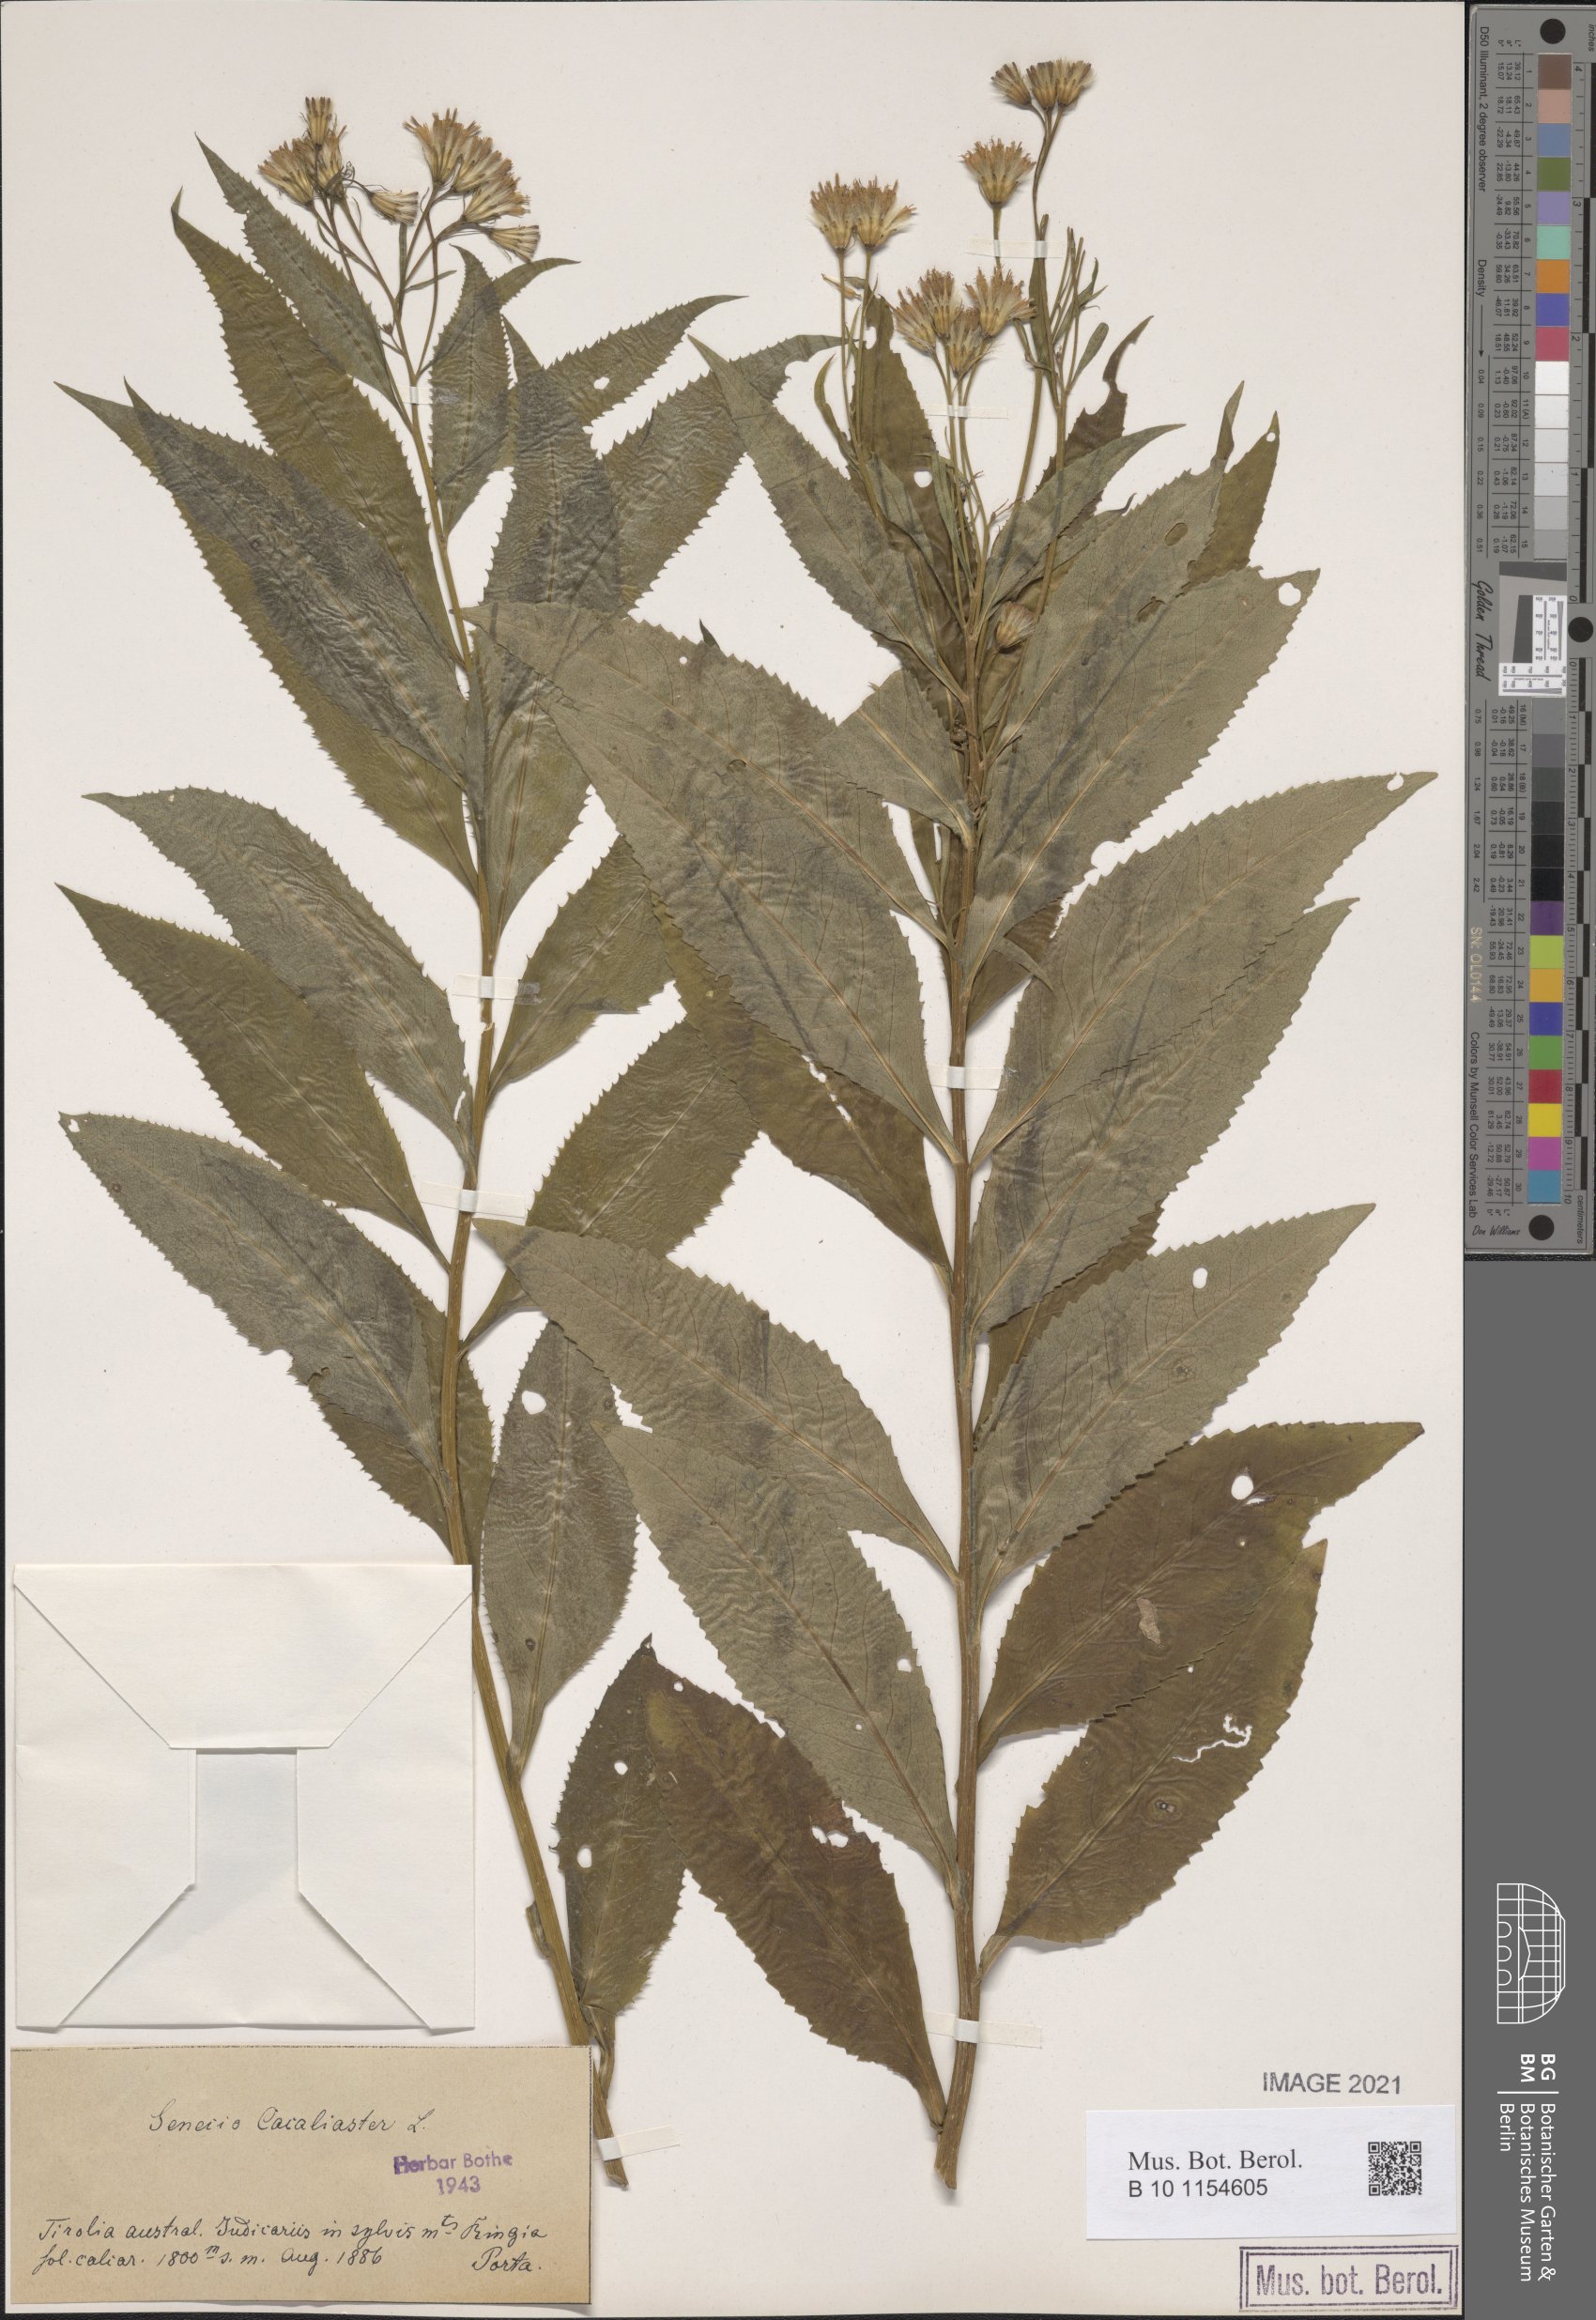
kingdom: Plantae
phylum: Tracheophyta
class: Magnoliopsida
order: Asterales
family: Asteraceae
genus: Senecio
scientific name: Senecio cacaliaster
